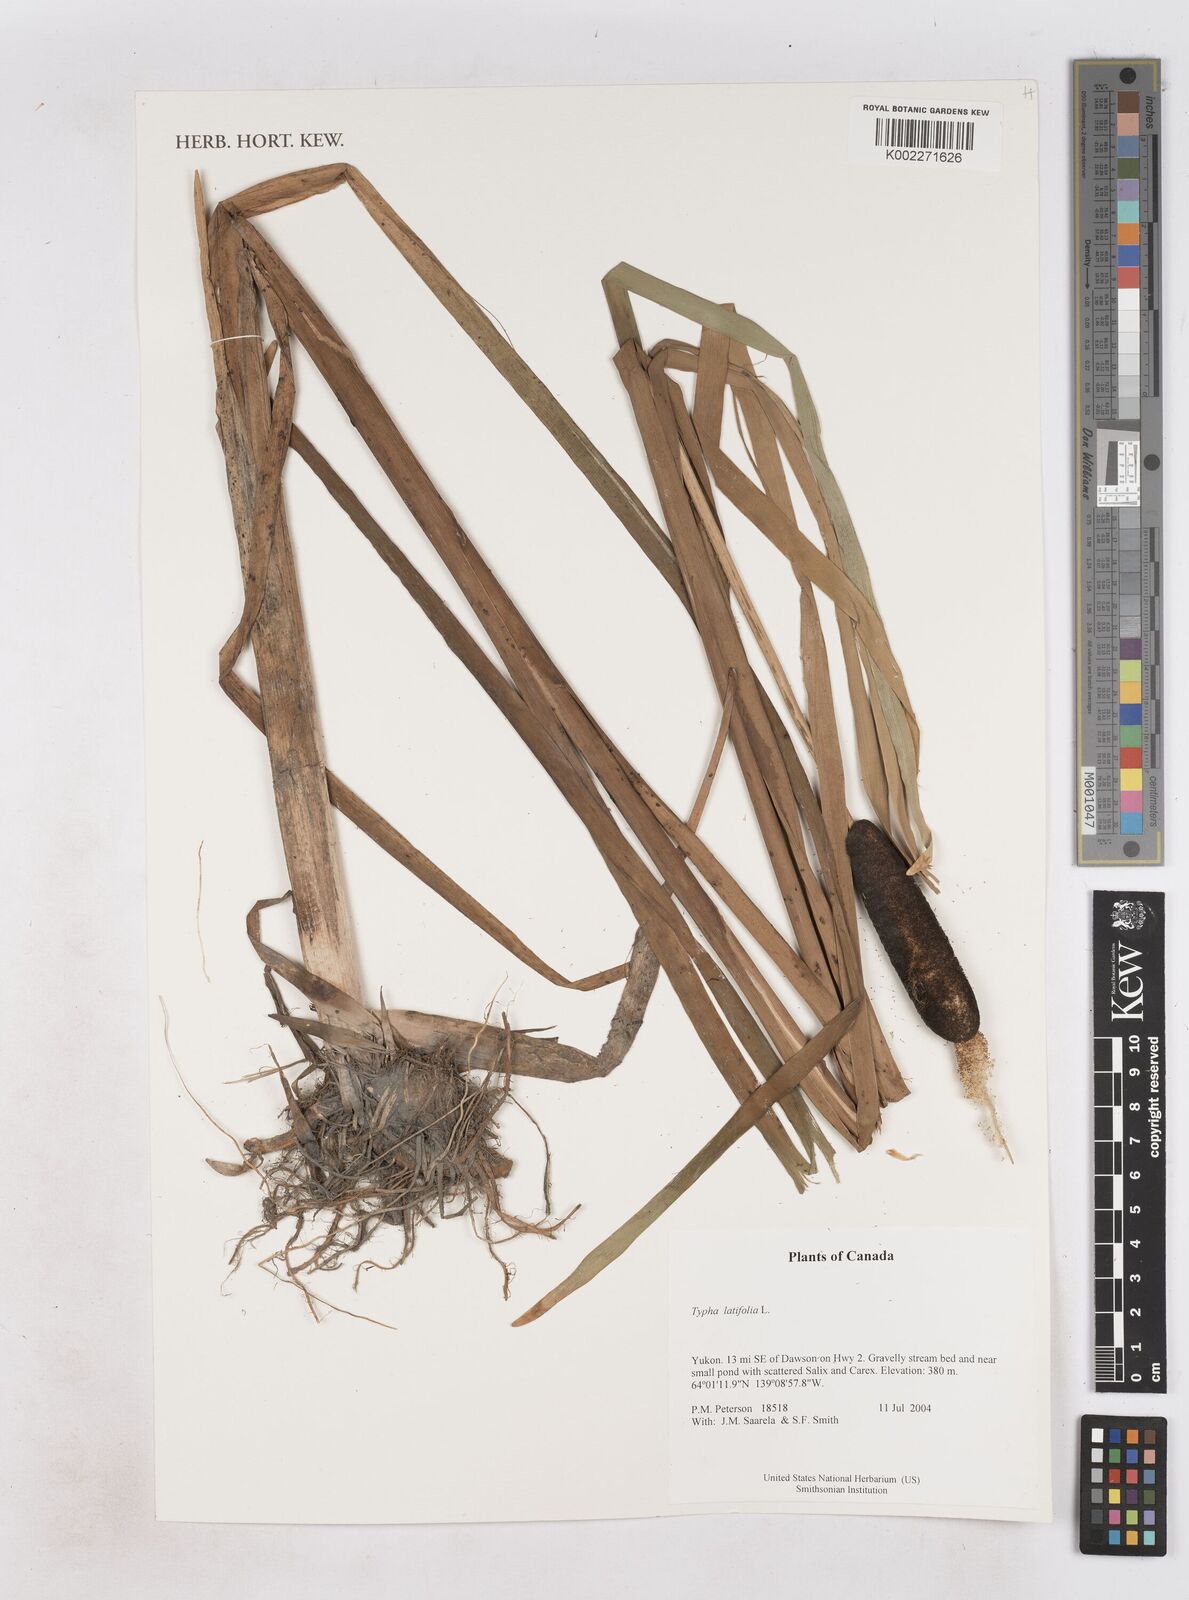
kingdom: Plantae
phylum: Tracheophyta
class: Liliopsida
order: Poales
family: Typhaceae
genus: Typha
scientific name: Typha latifolia
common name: Broadleaf cattail
